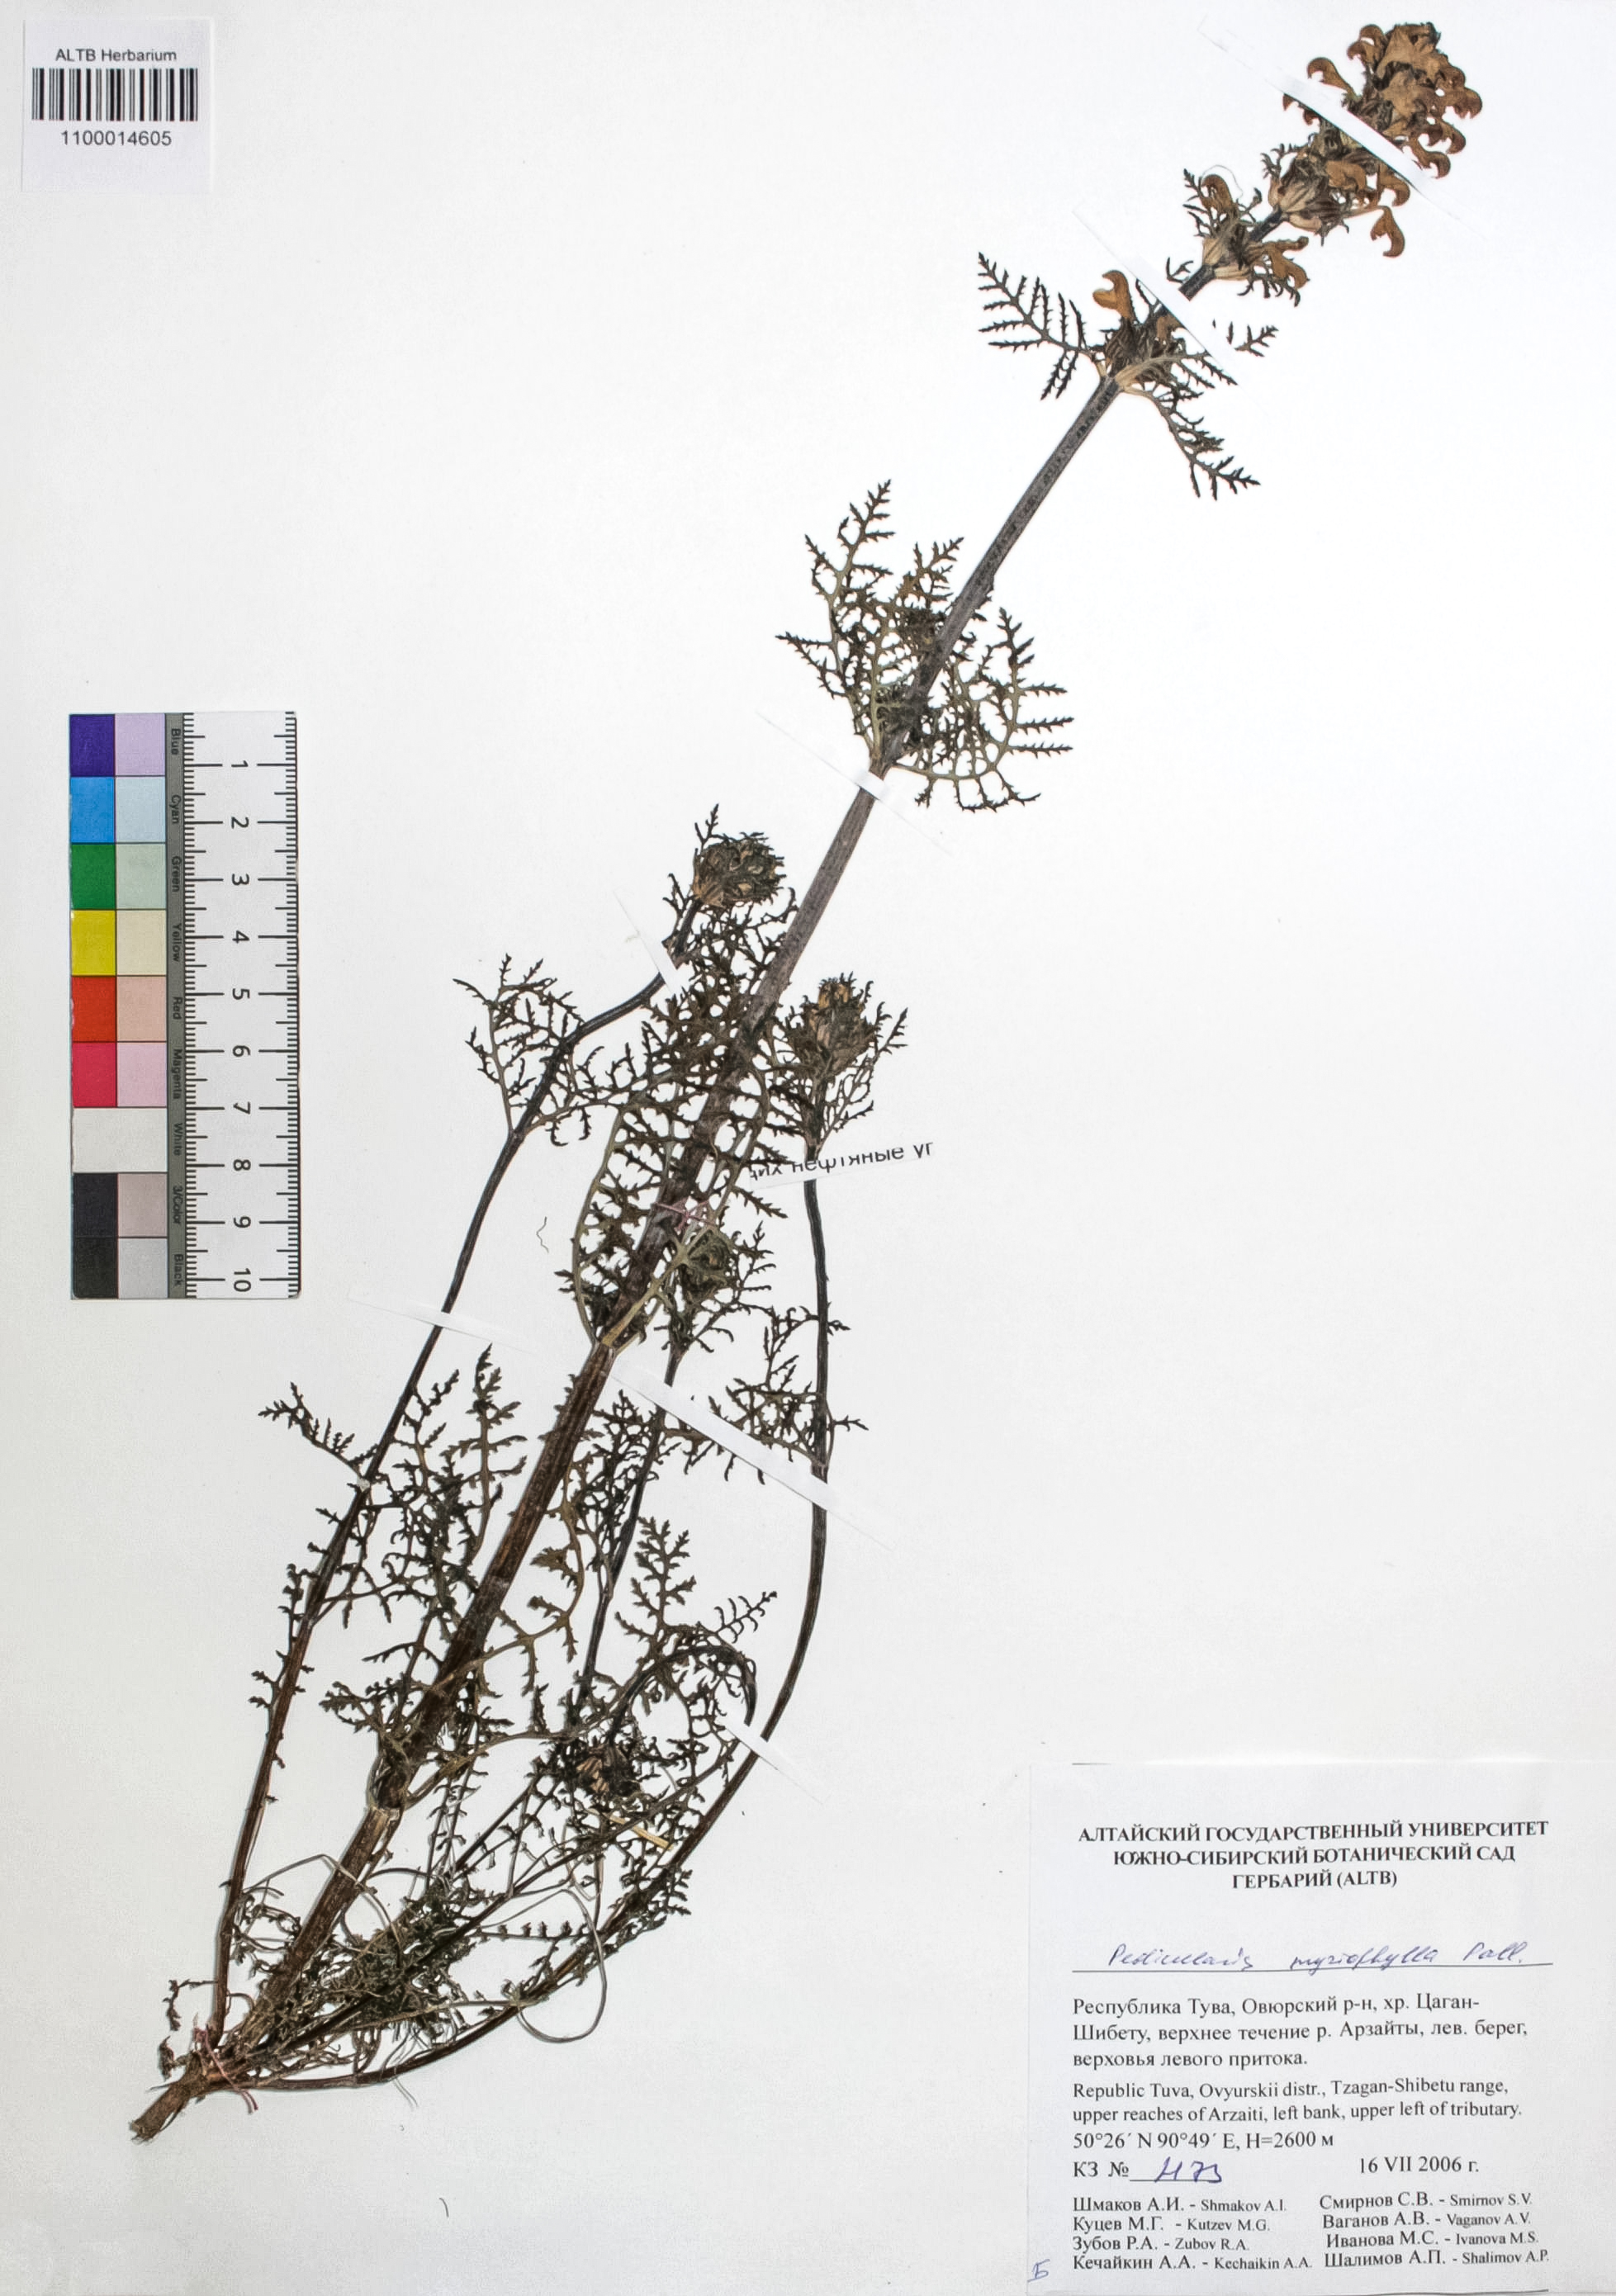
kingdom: Plantae
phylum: Tracheophyta
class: Magnoliopsida
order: Lamiales
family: Orobanchaceae
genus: Pedicularis
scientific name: Pedicularis myriophylla
